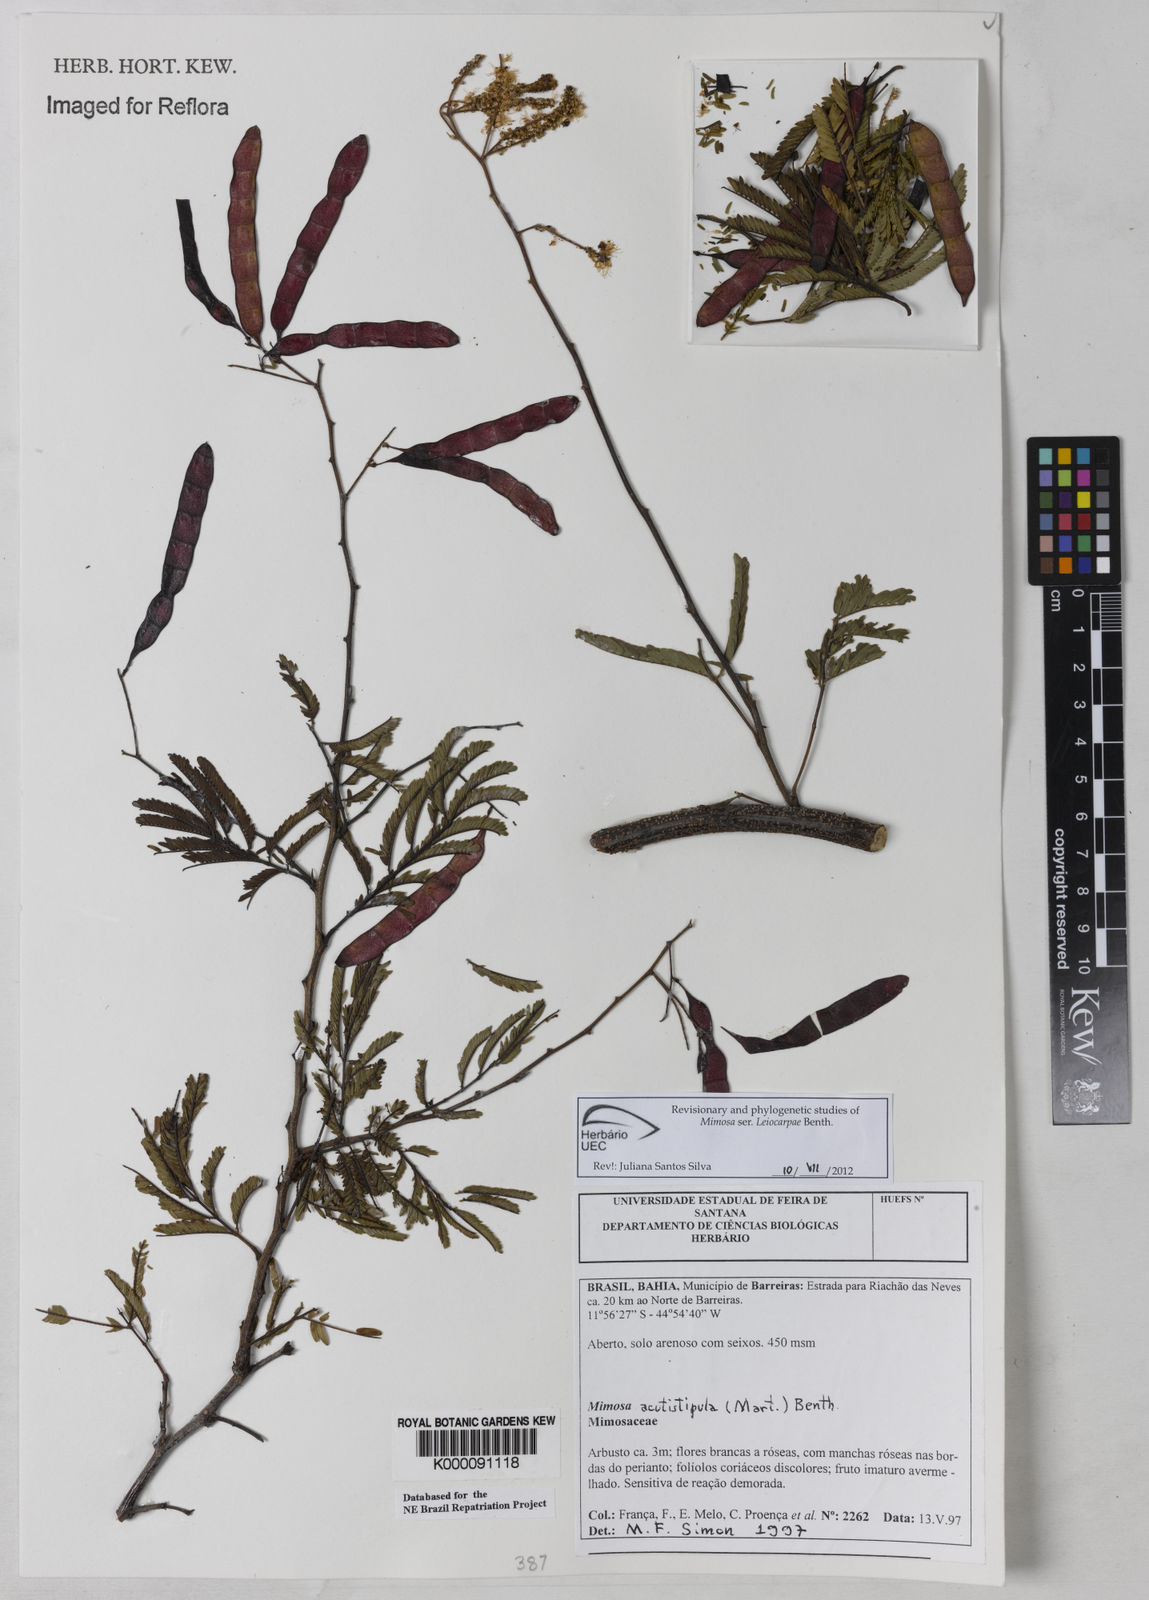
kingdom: Plantae
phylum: Tracheophyta
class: Magnoliopsida
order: Fabales
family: Fabaceae
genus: Mimosa
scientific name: Mimosa acutistipula
